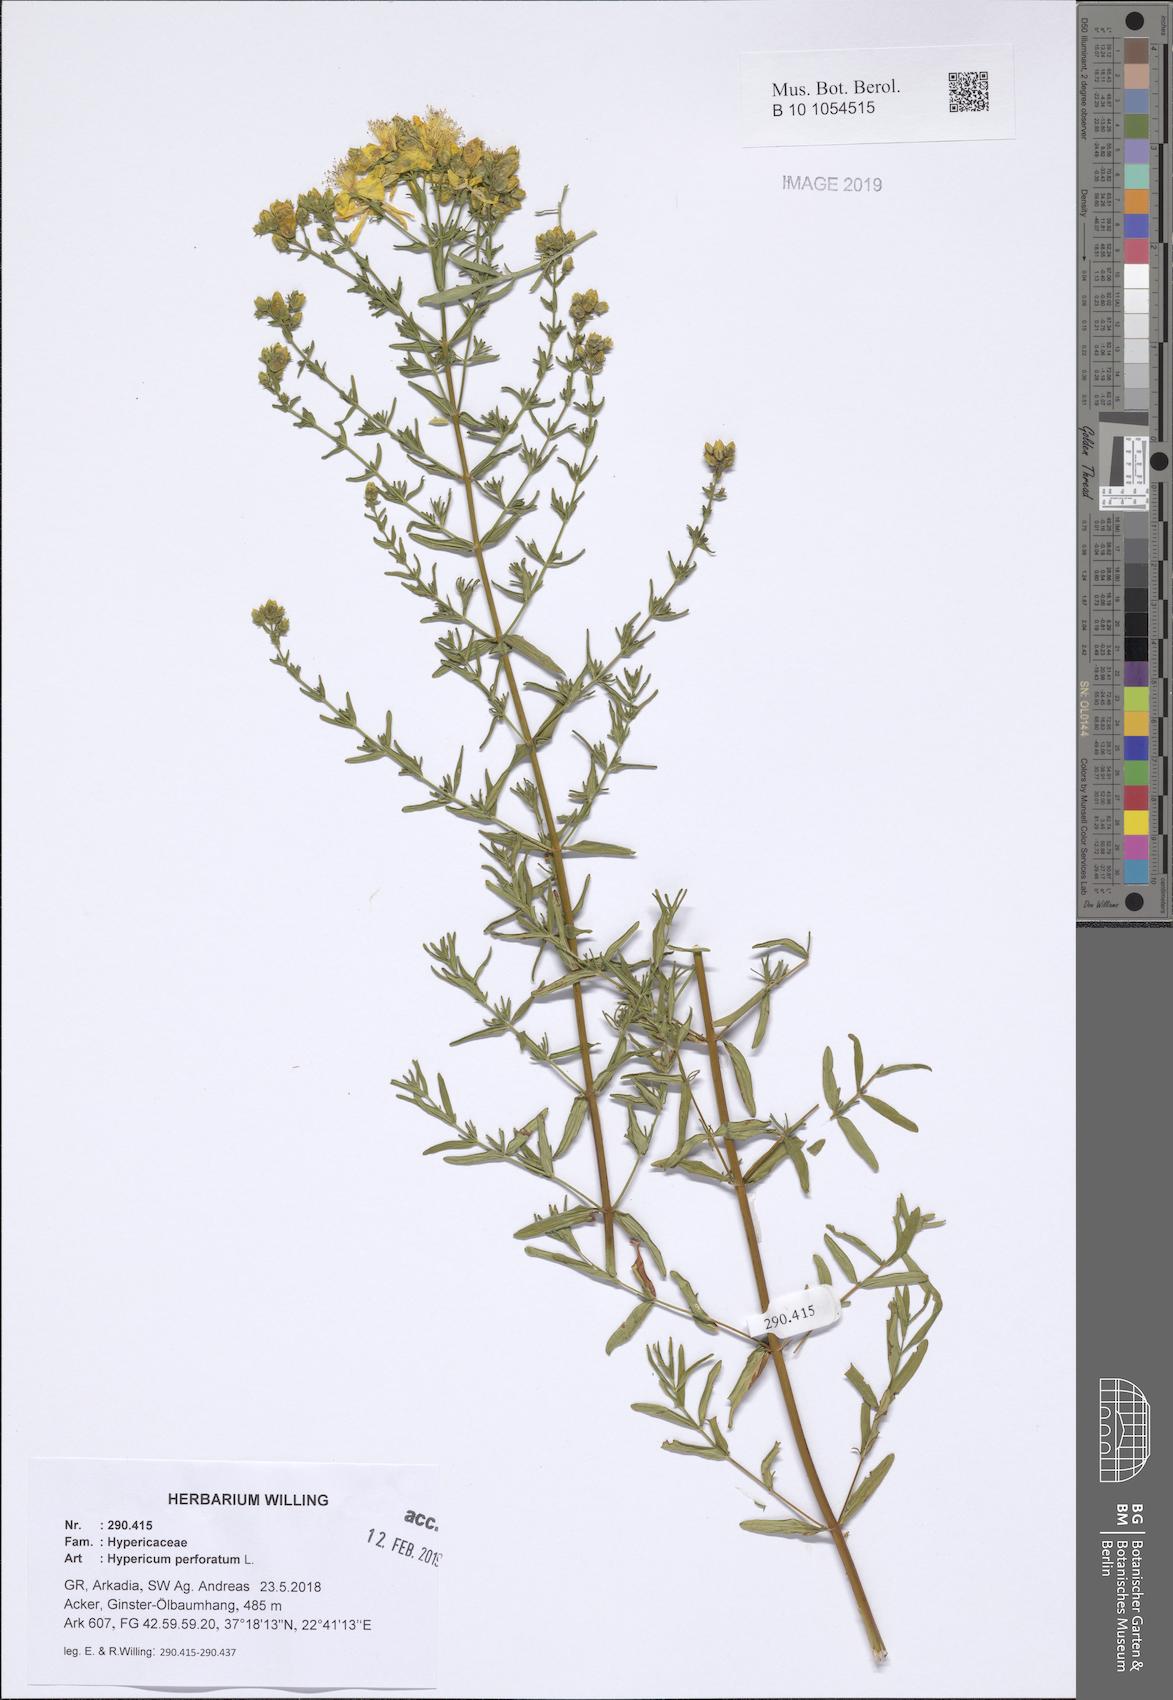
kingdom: Plantae
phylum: Tracheophyta
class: Magnoliopsida
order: Malpighiales
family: Hypericaceae
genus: Hypericum
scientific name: Hypericum perforatum
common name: Common st. johnswort
